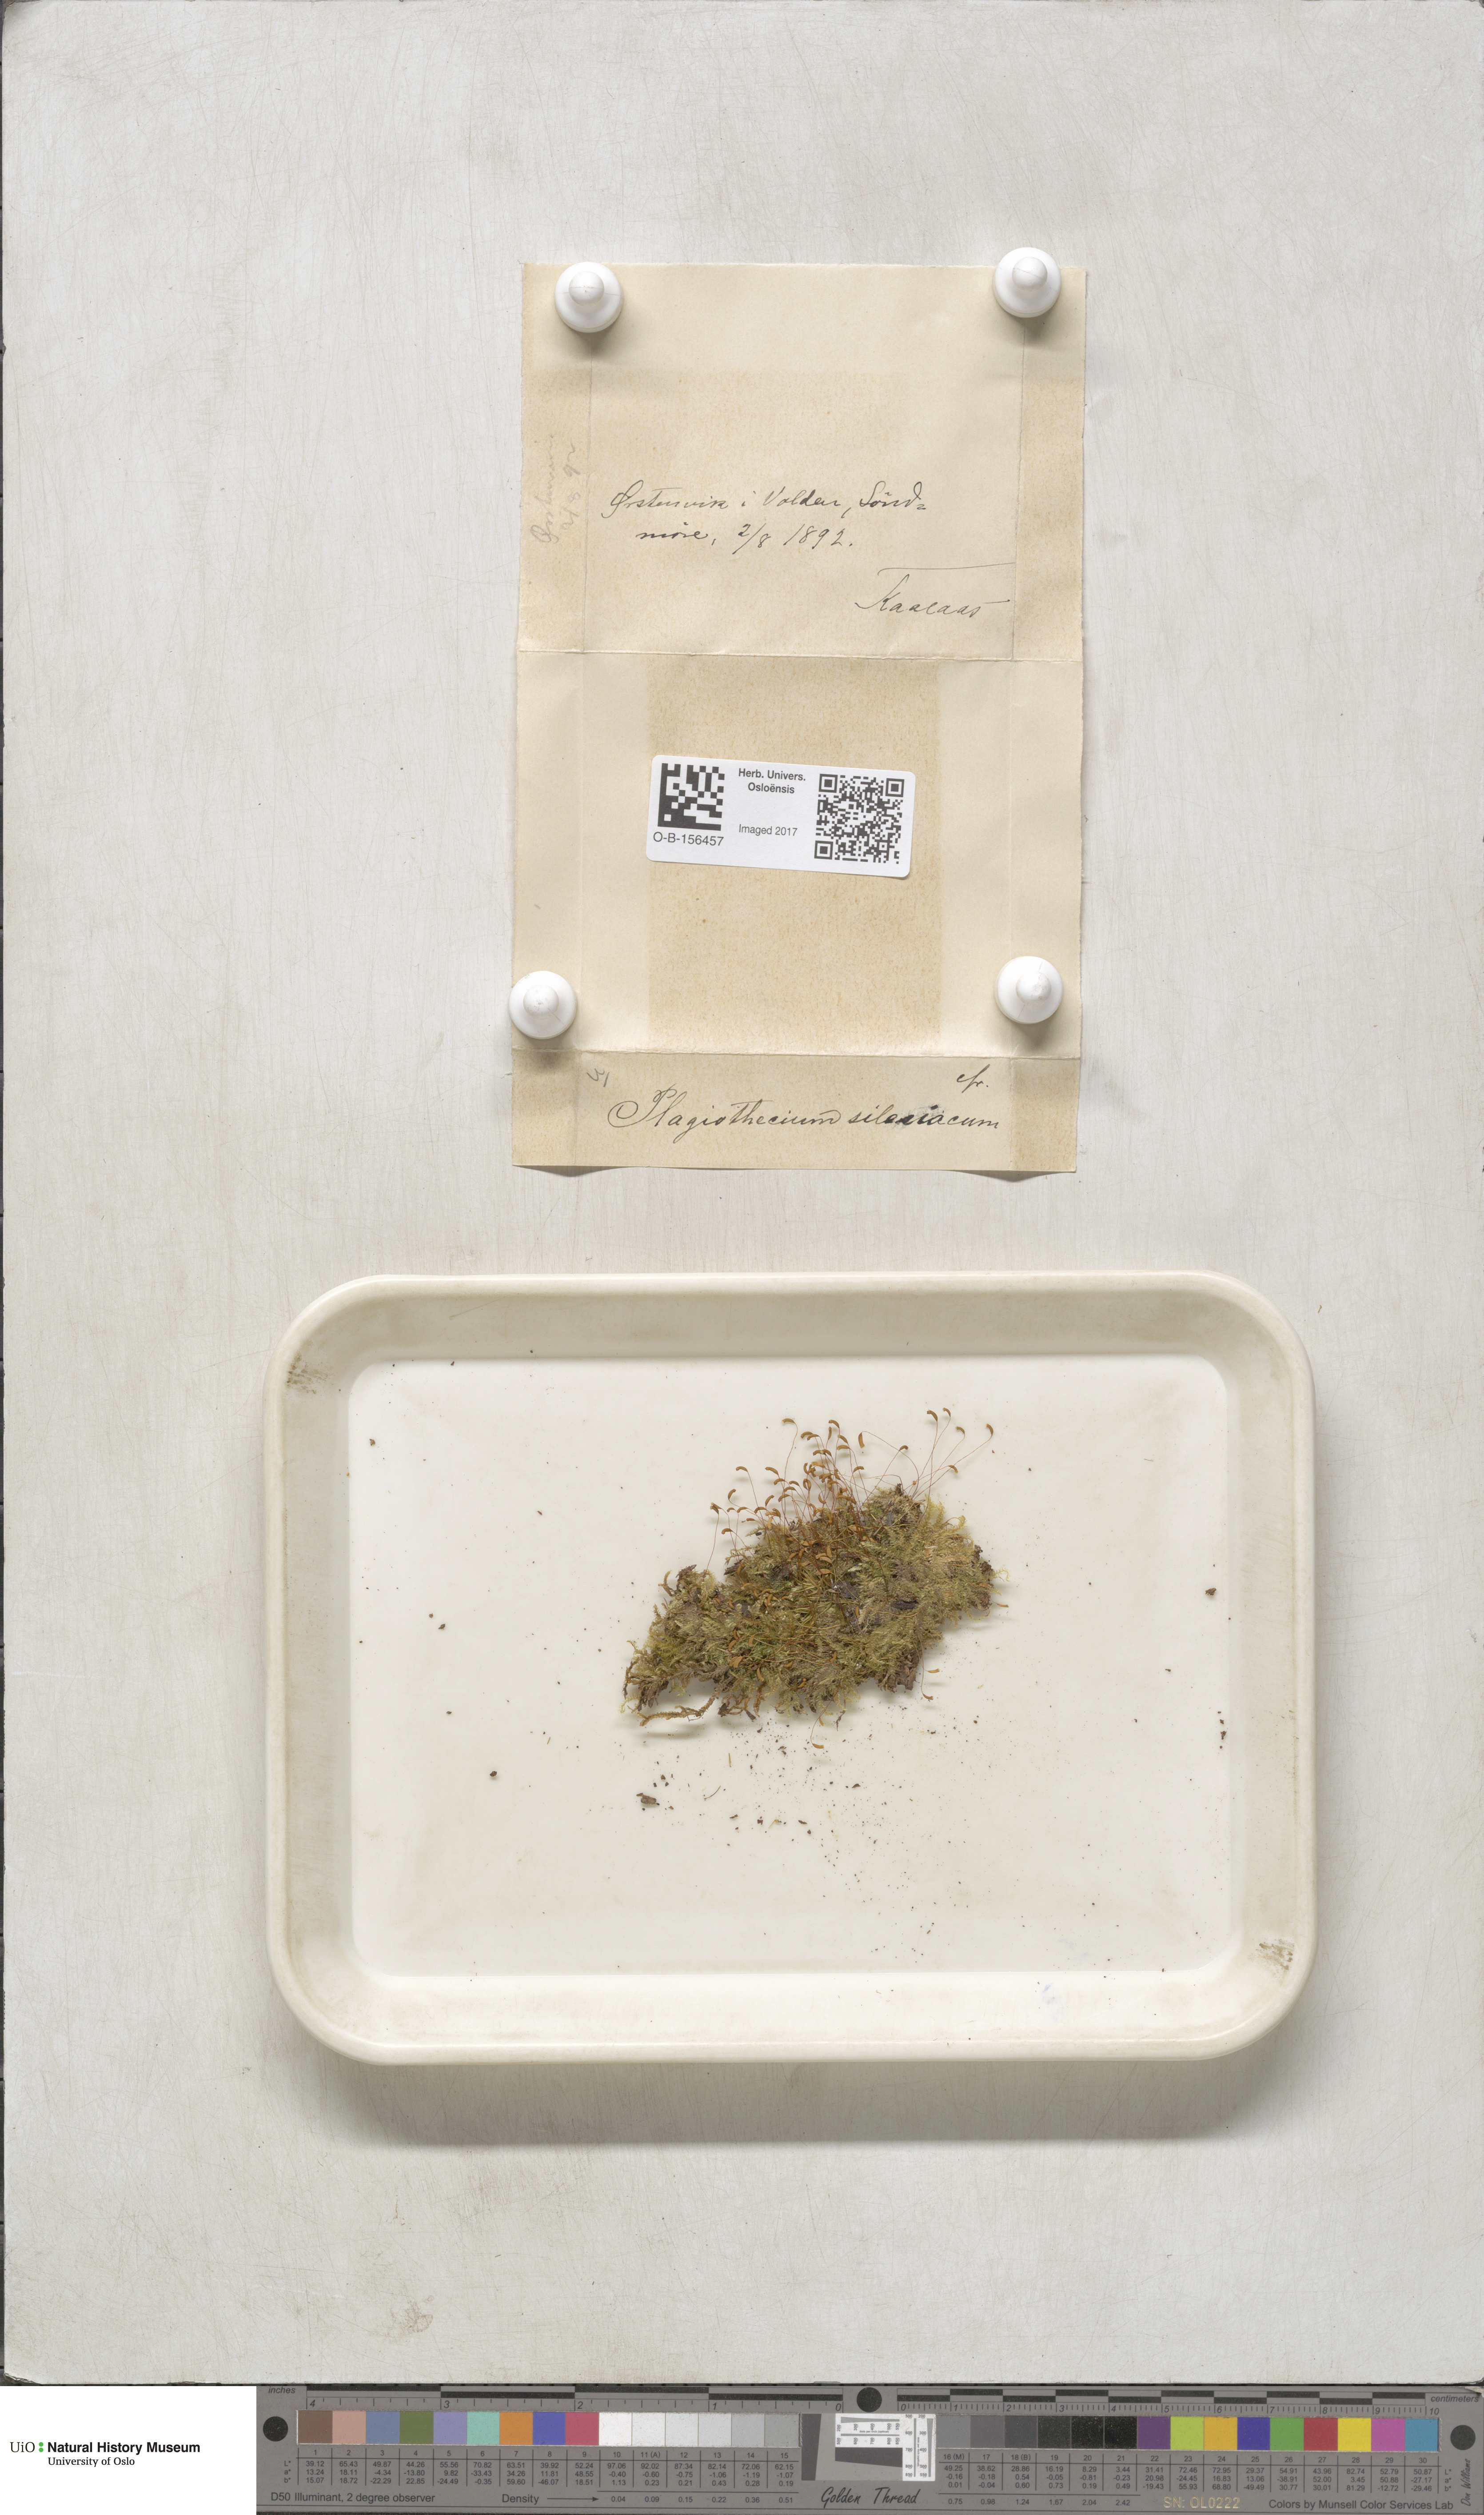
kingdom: Plantae
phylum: Bryophyta
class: Bryopsida
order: Hypnales
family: Plagiotheciaceae
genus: Plagiothecium
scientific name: Plagiothecium nemorale
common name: Woodsy silk-moss
